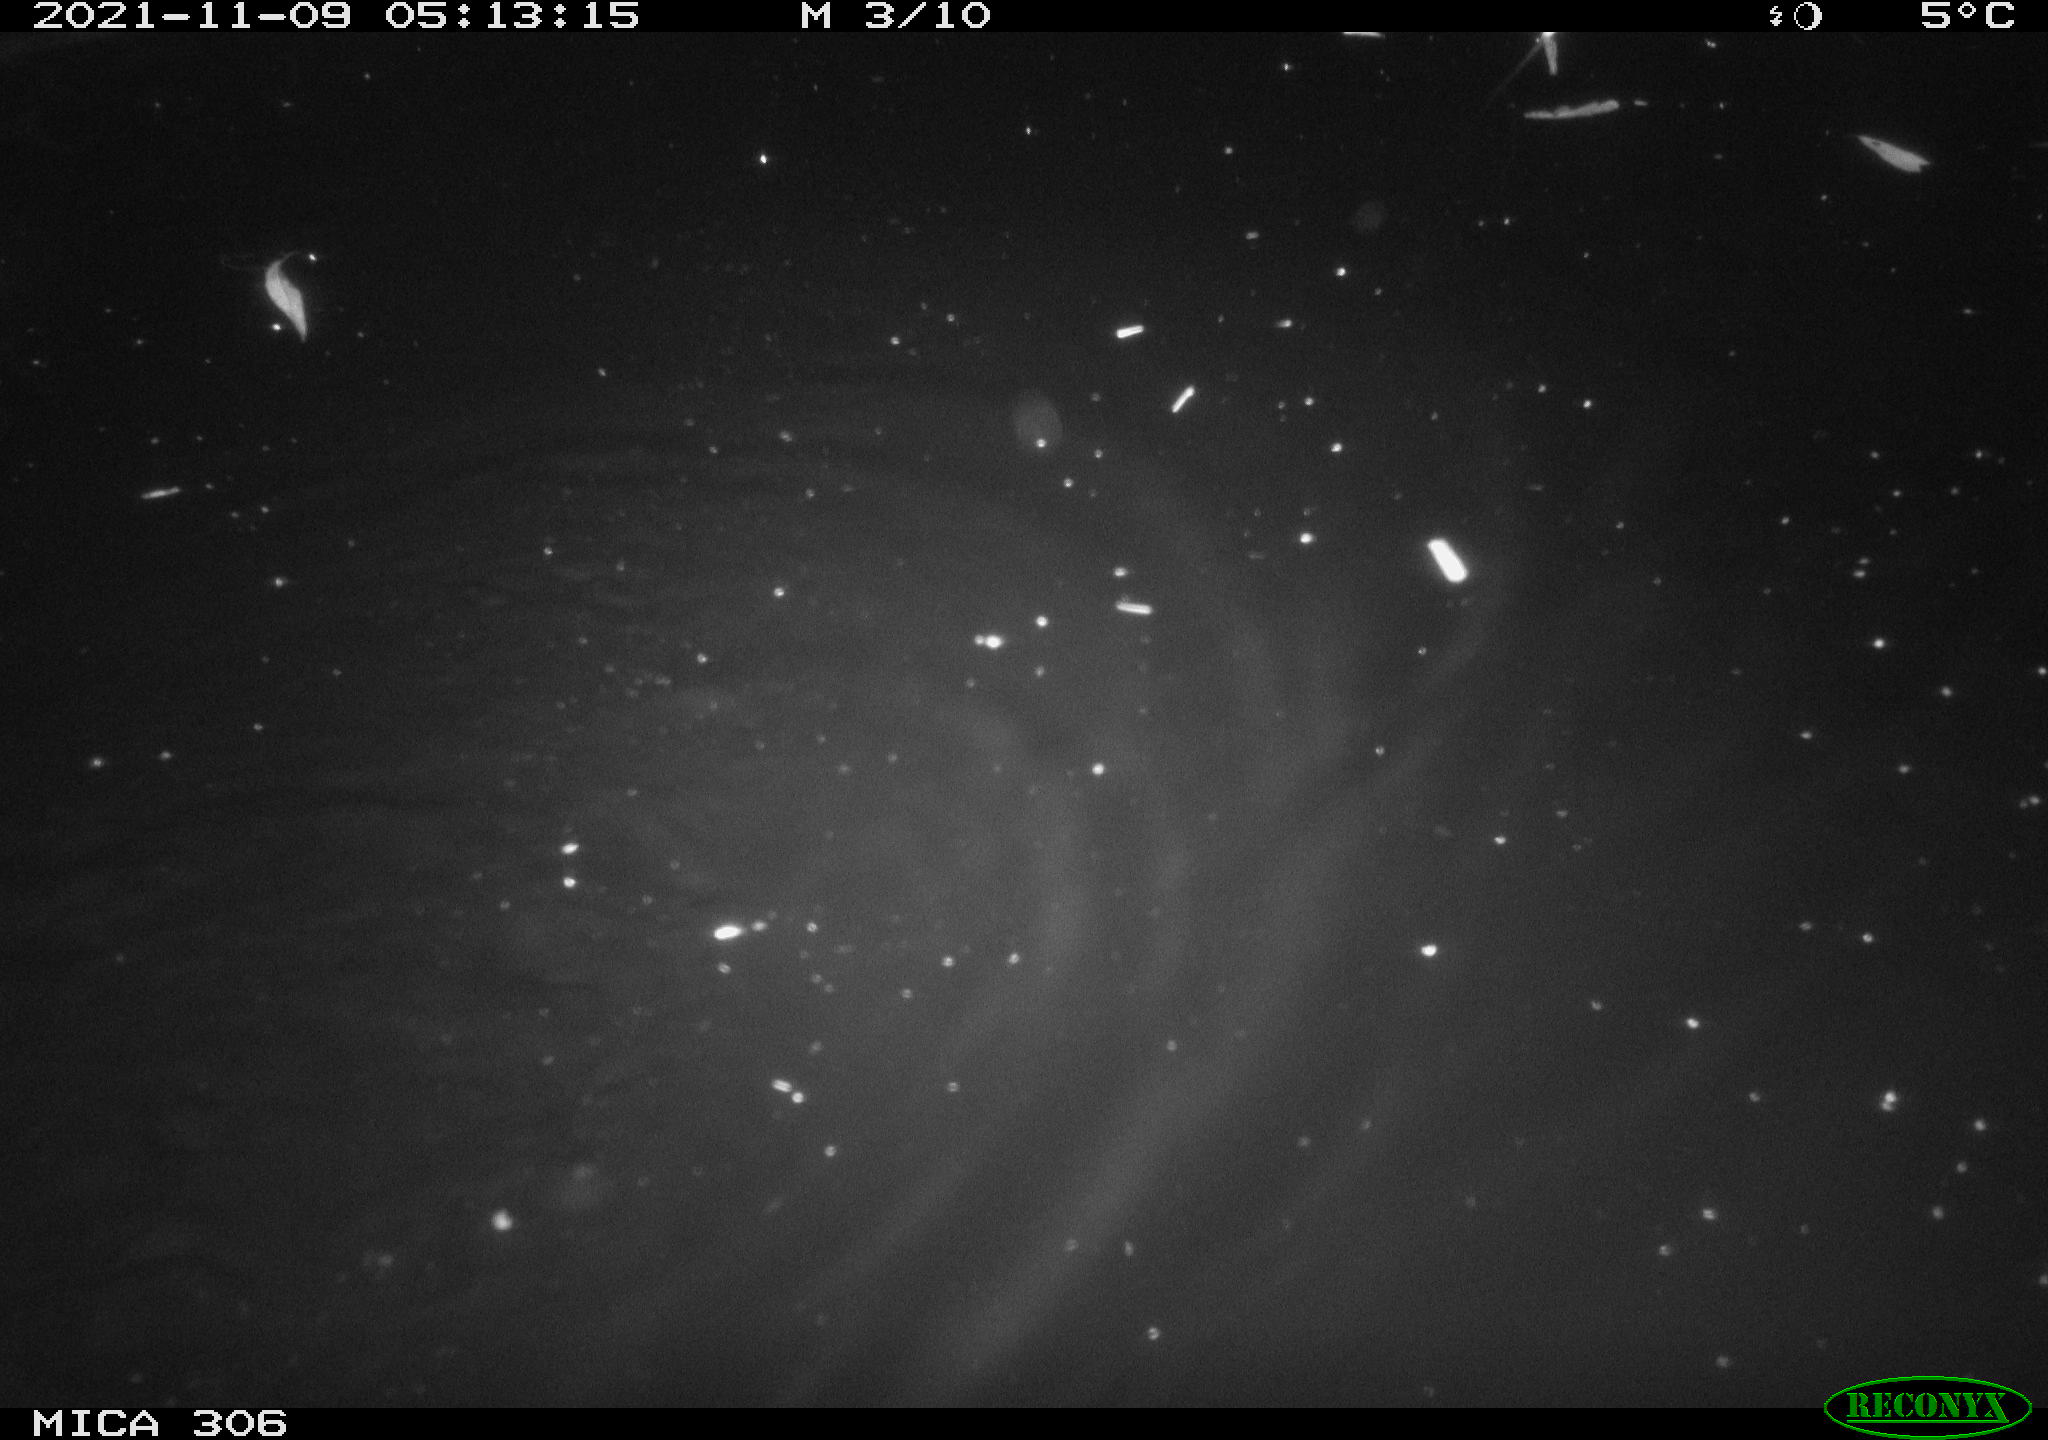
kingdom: Animalia
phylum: Chordata
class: Mammalia
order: Rodentia
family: Cricetidae
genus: Ondatra
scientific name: Ondatra zibethicus
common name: Muskrat
